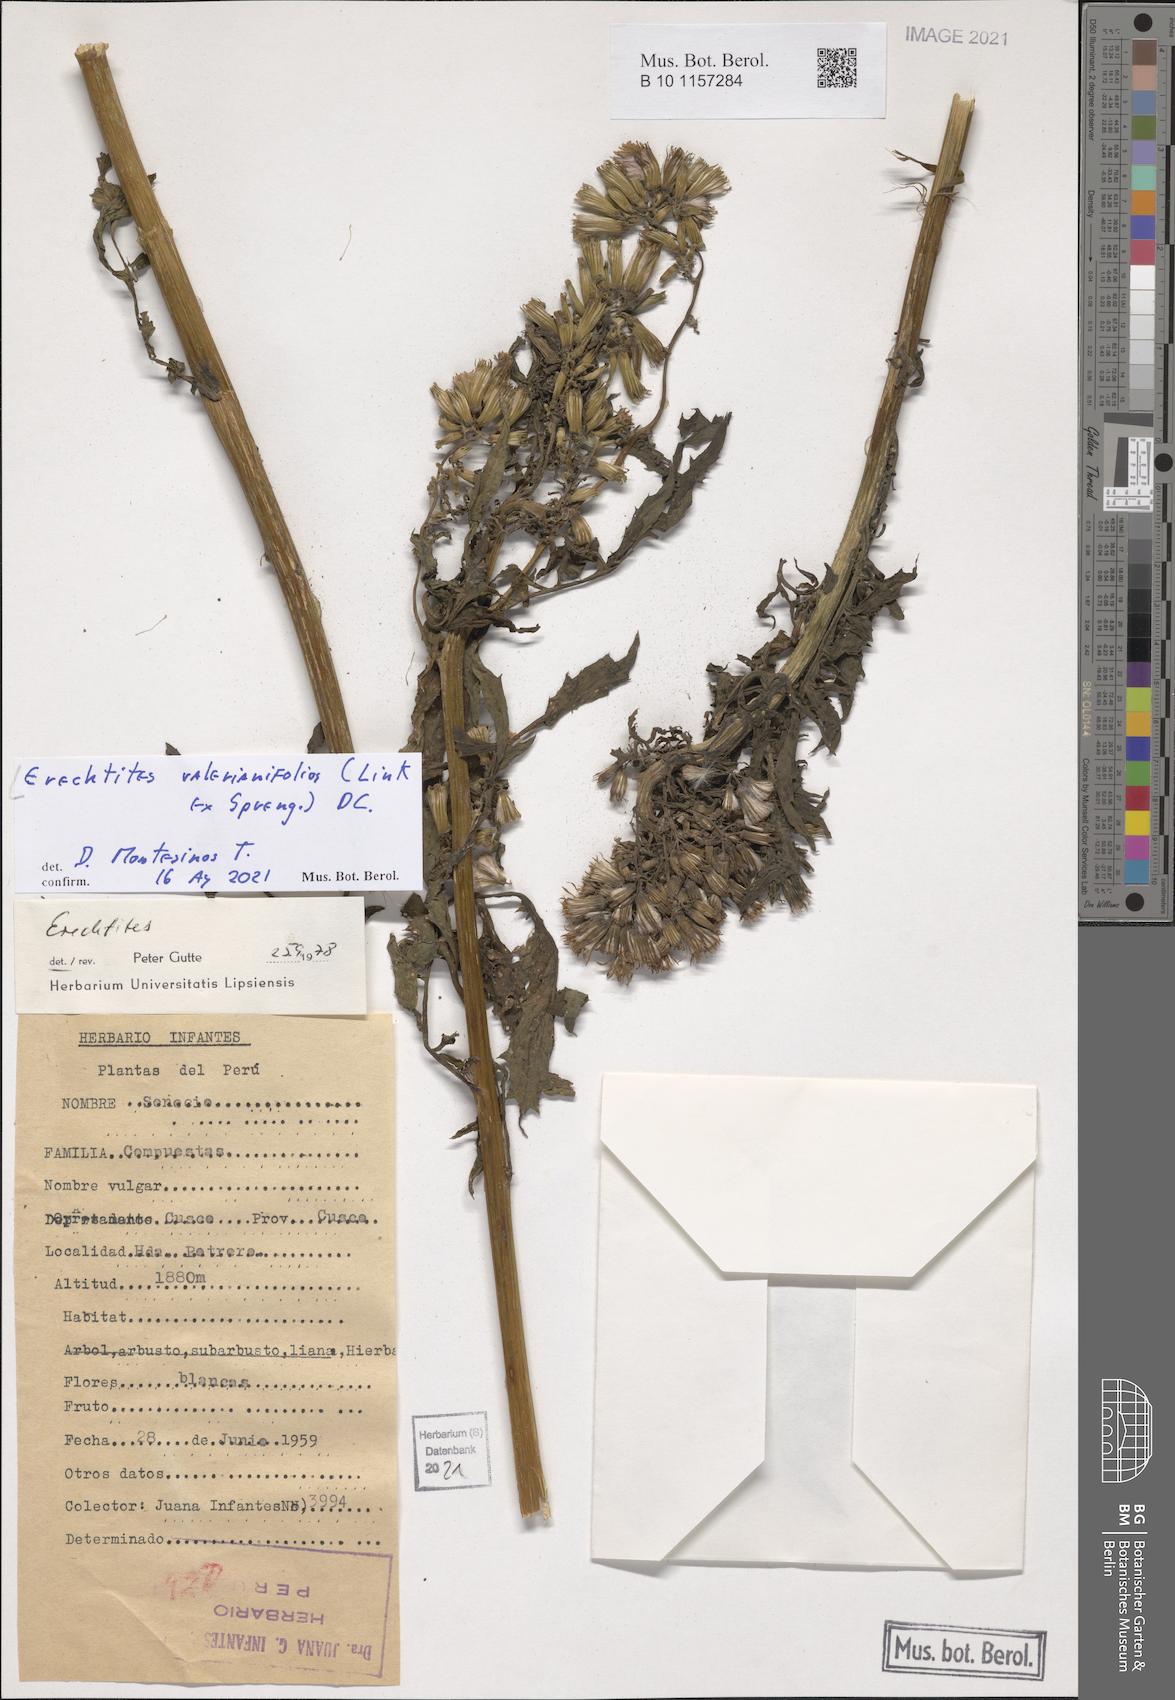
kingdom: Plantae
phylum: Tracheophyta
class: Magnoliopsida
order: Asterales
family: Asteraceae
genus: Erechtites
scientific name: Erechtites valerianifolius
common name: Tropical burnweed
